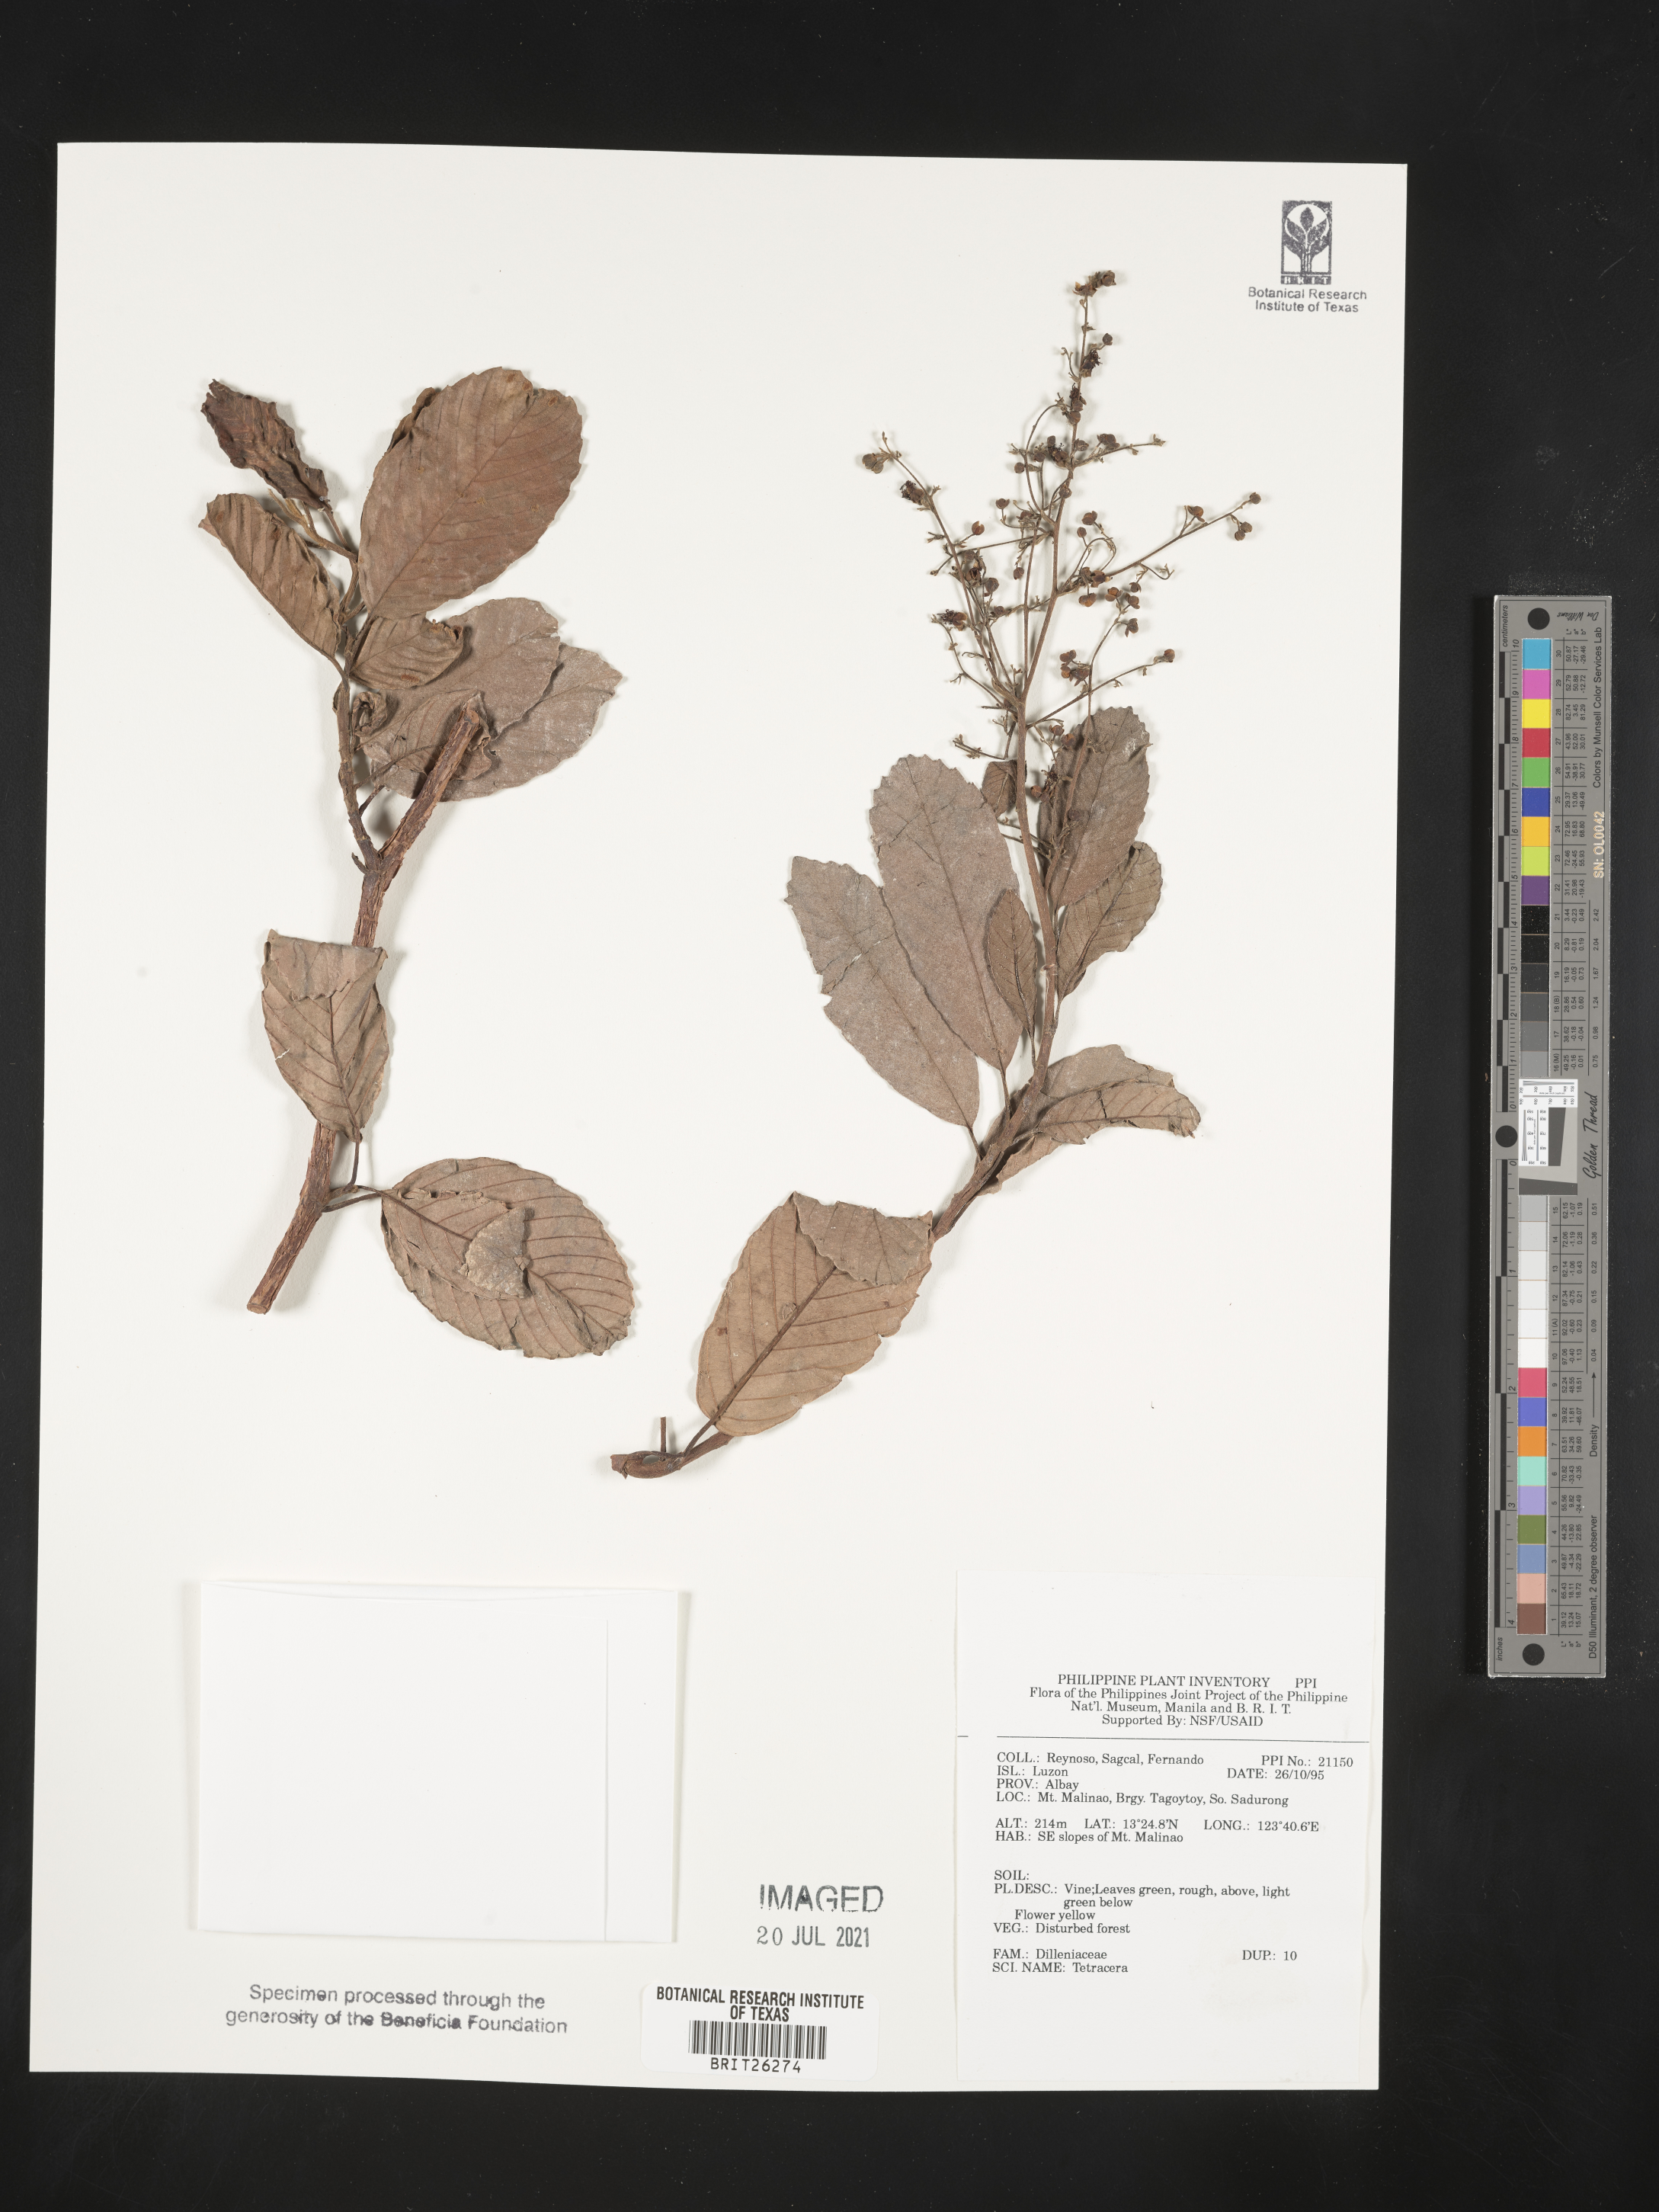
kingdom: Plantae
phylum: Tracheophyta
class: Magnoliopsida
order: Dilleniales
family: Dilleniaceae
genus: Tetracera
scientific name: Tetracera
